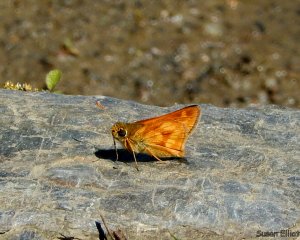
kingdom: Animalia
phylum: Arthropoda
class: Insecta
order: Lepidoptera
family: Hesperiidae
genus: Polites
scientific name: Polites
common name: Long Dash Skipper
